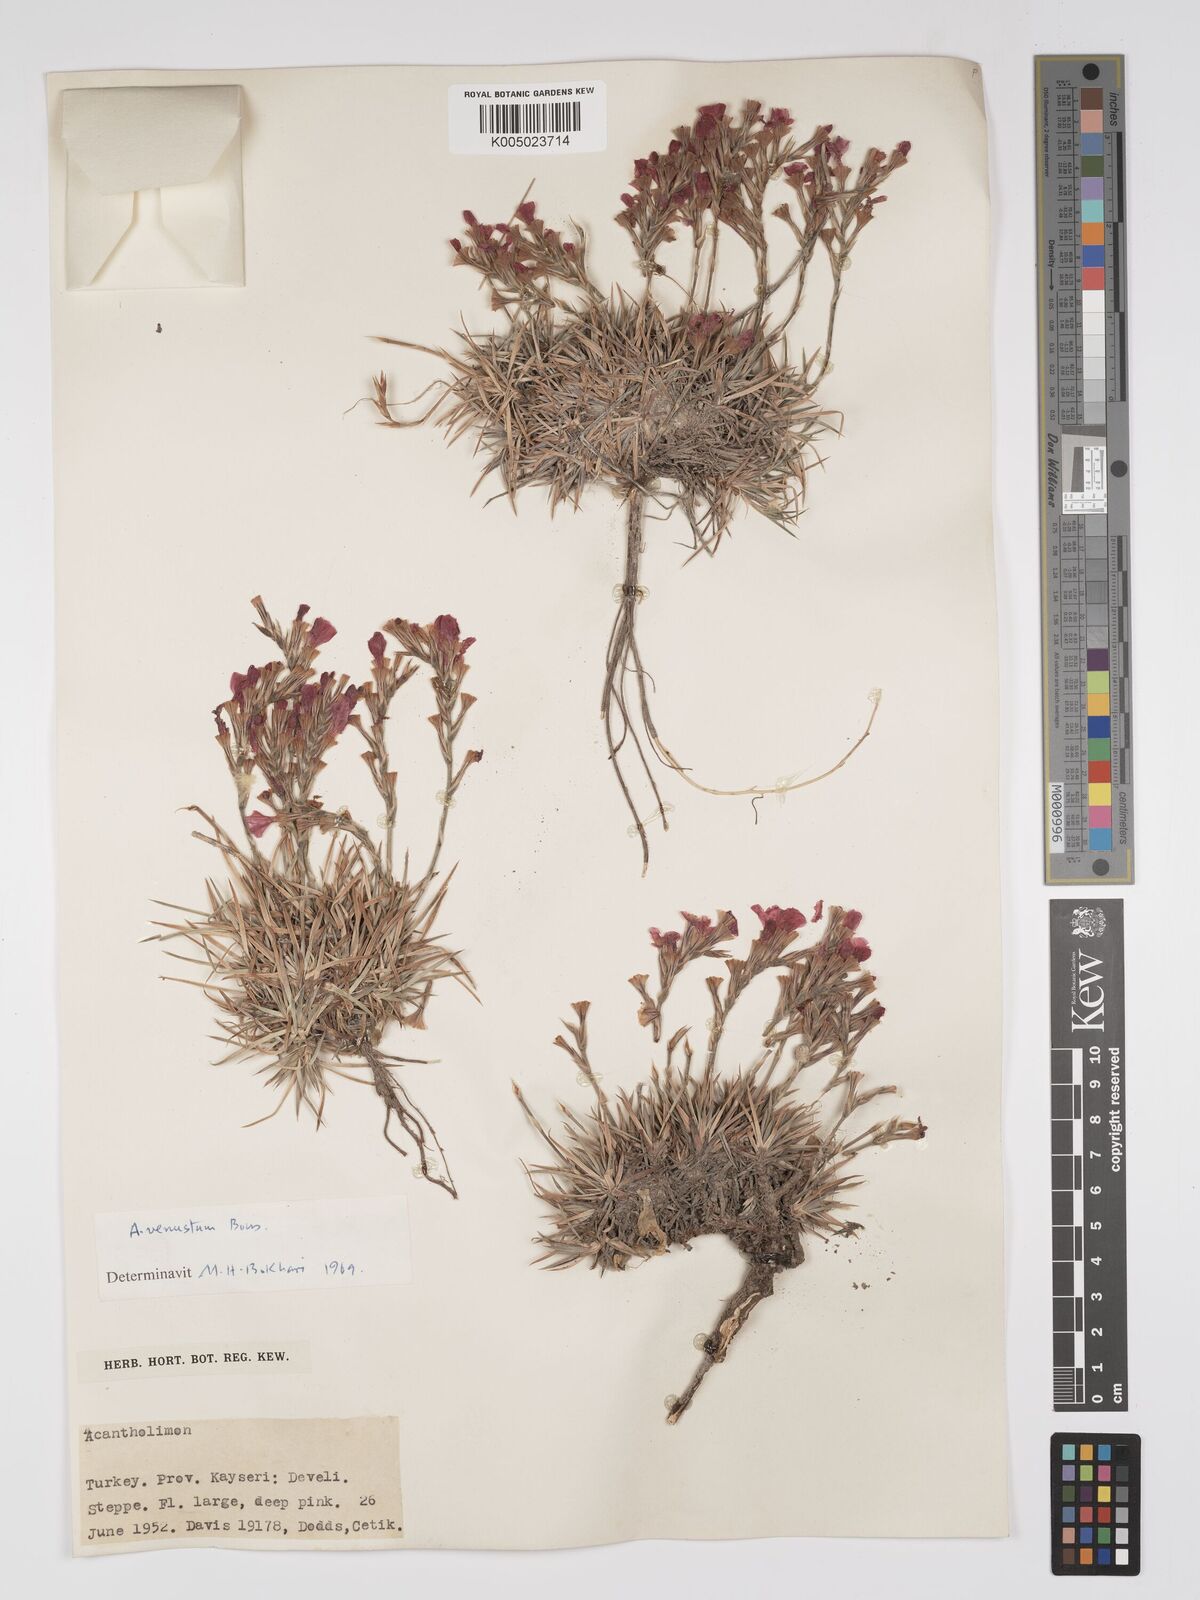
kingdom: Plantae
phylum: Tracheophyta
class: Magnoliopsida
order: Caryophyllales
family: Plumbaginaceae
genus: Acantholimon
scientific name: Acantholimon venustum
